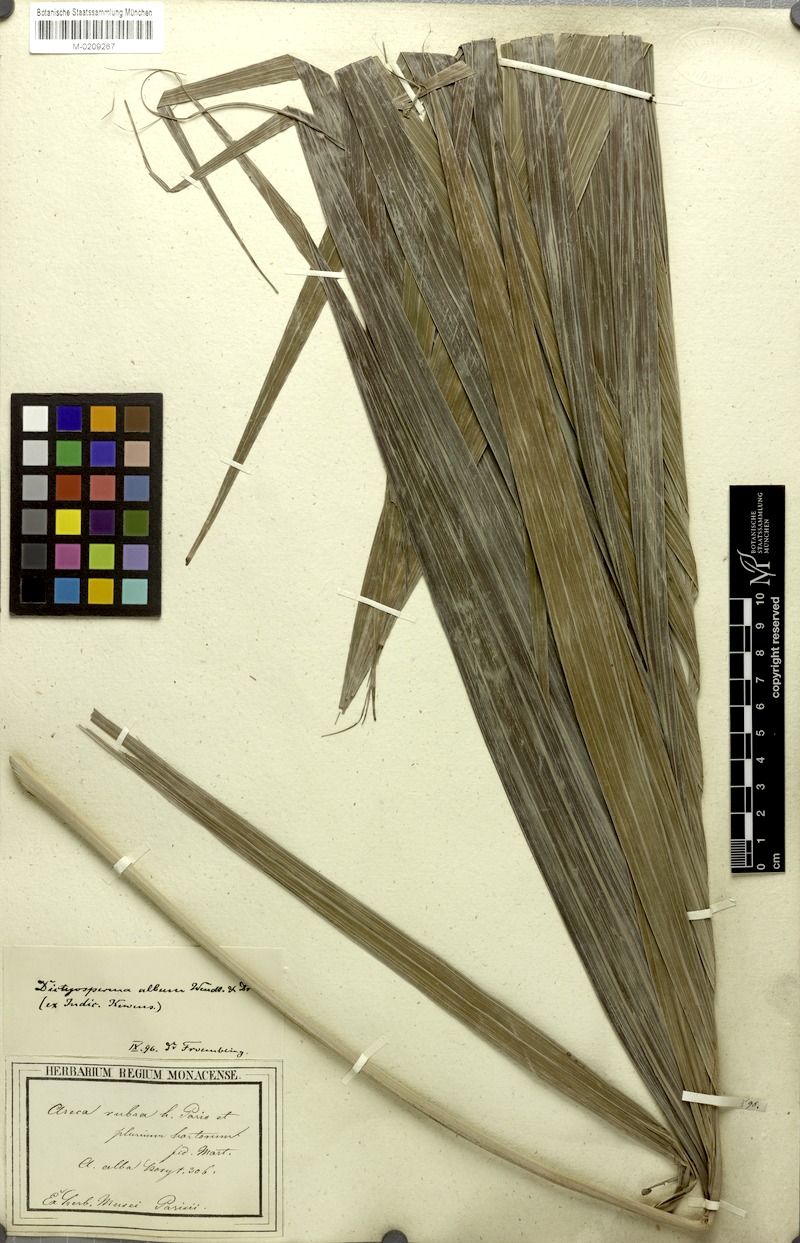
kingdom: Plantae
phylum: Tracheophyta
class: Liliopsida
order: Arecales
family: Arecaceae
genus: Dictyosperma
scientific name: Dictyosperma album
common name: Common princess palm
